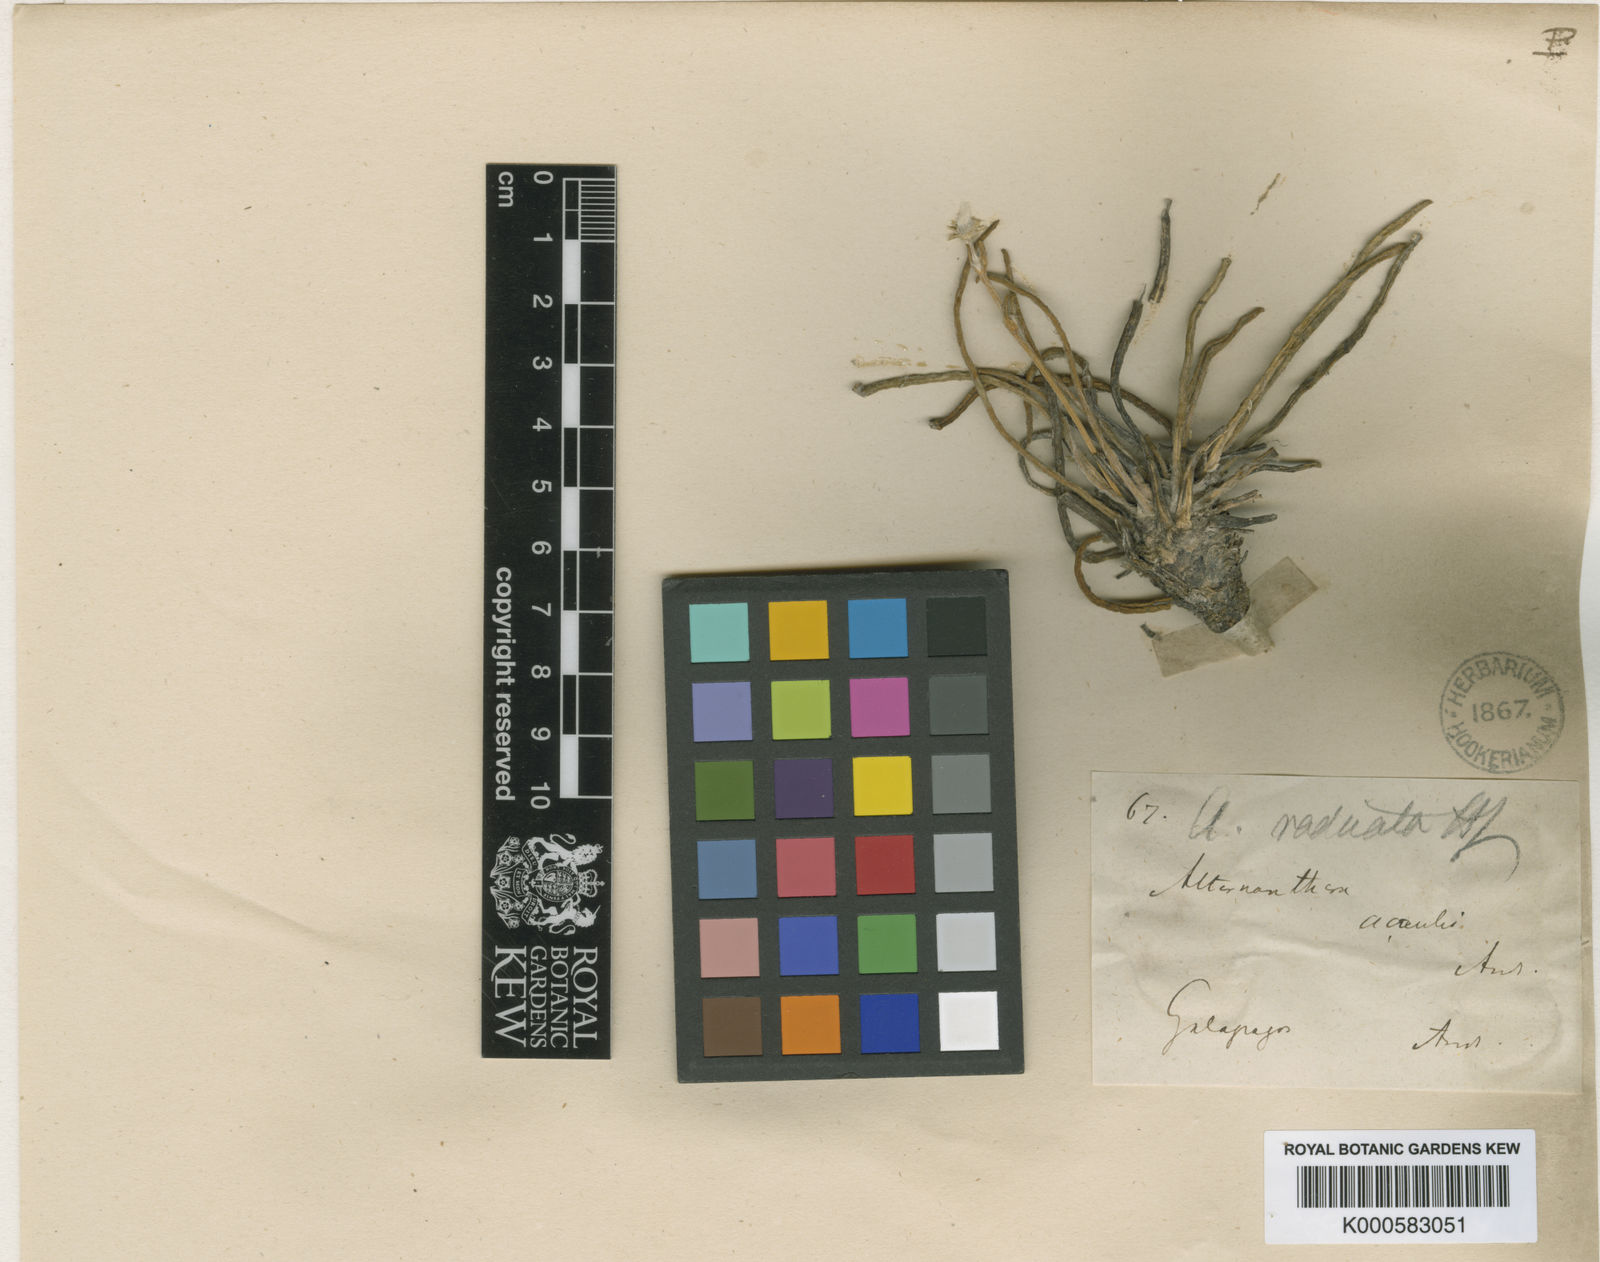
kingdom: Plantae
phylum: Tracheophyta
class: Magnoliopsida
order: Caryophyllales
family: Amaranthaceae
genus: Gomphrena
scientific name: Gomphrena radicata
